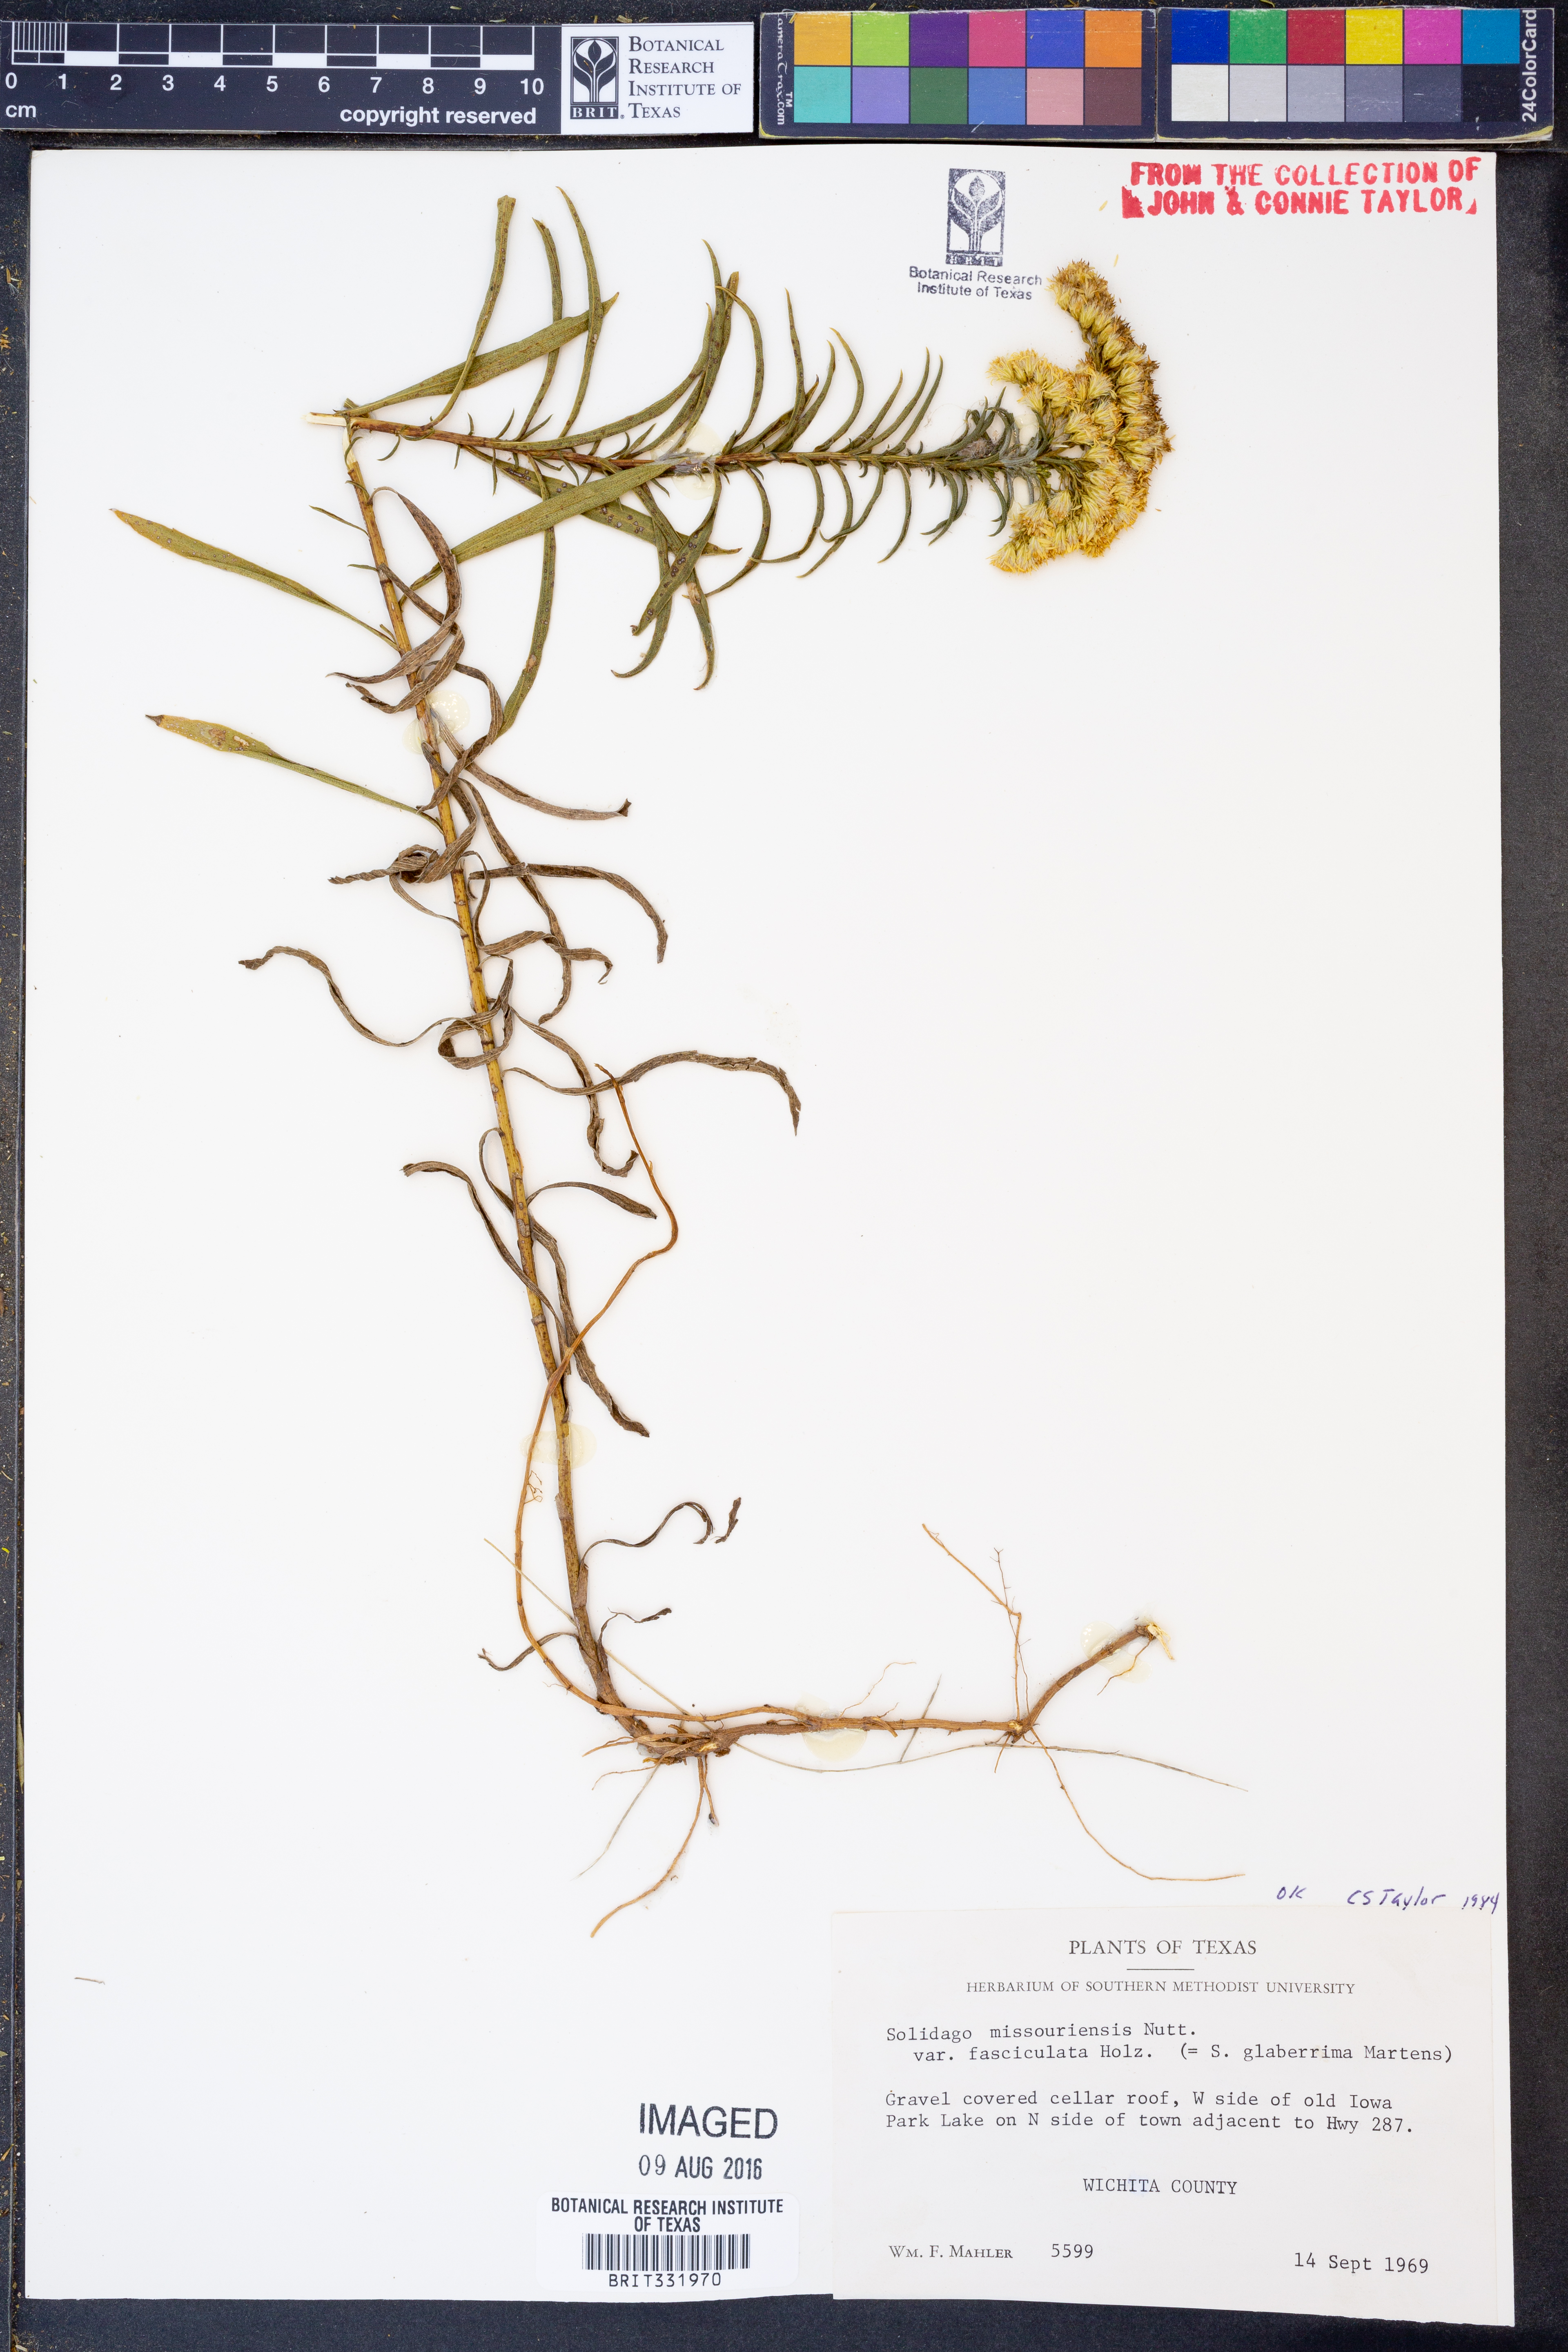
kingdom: Plantae
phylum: Tracheophyta
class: Magnoliopsida
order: Asterales
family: Asteraceae
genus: Solidago
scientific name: Solidago missouriensis
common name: Prairie goldenrod
